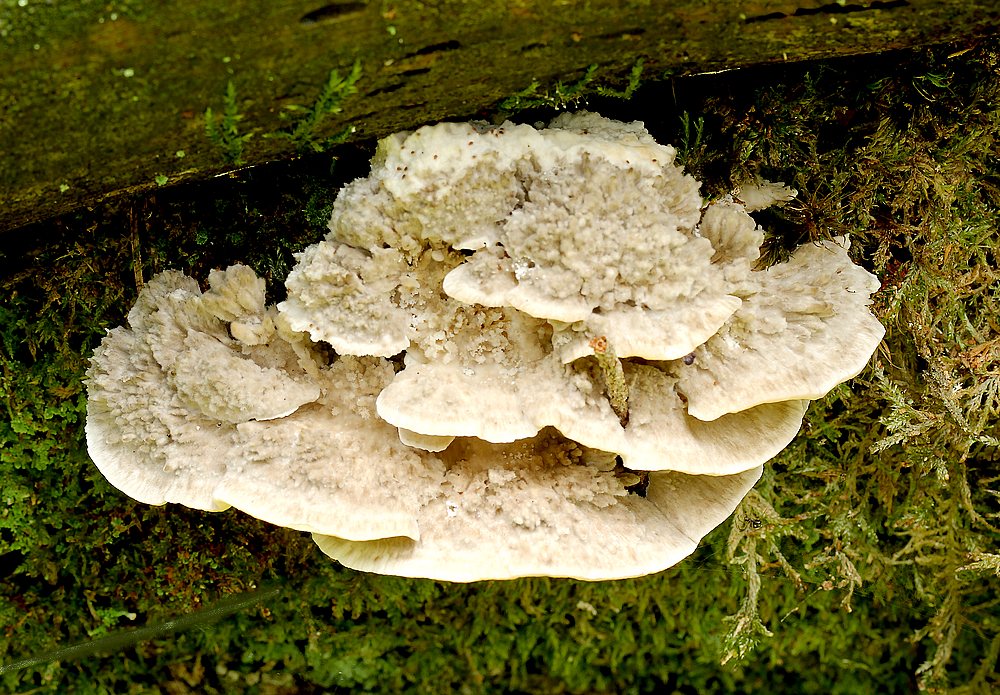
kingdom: Fungi
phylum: Basidiomycota
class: Agaricomycetes
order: Polyporales
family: Polyporaceae
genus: Trametes
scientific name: Trametes pubescens
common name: dunet læderporesvamp
